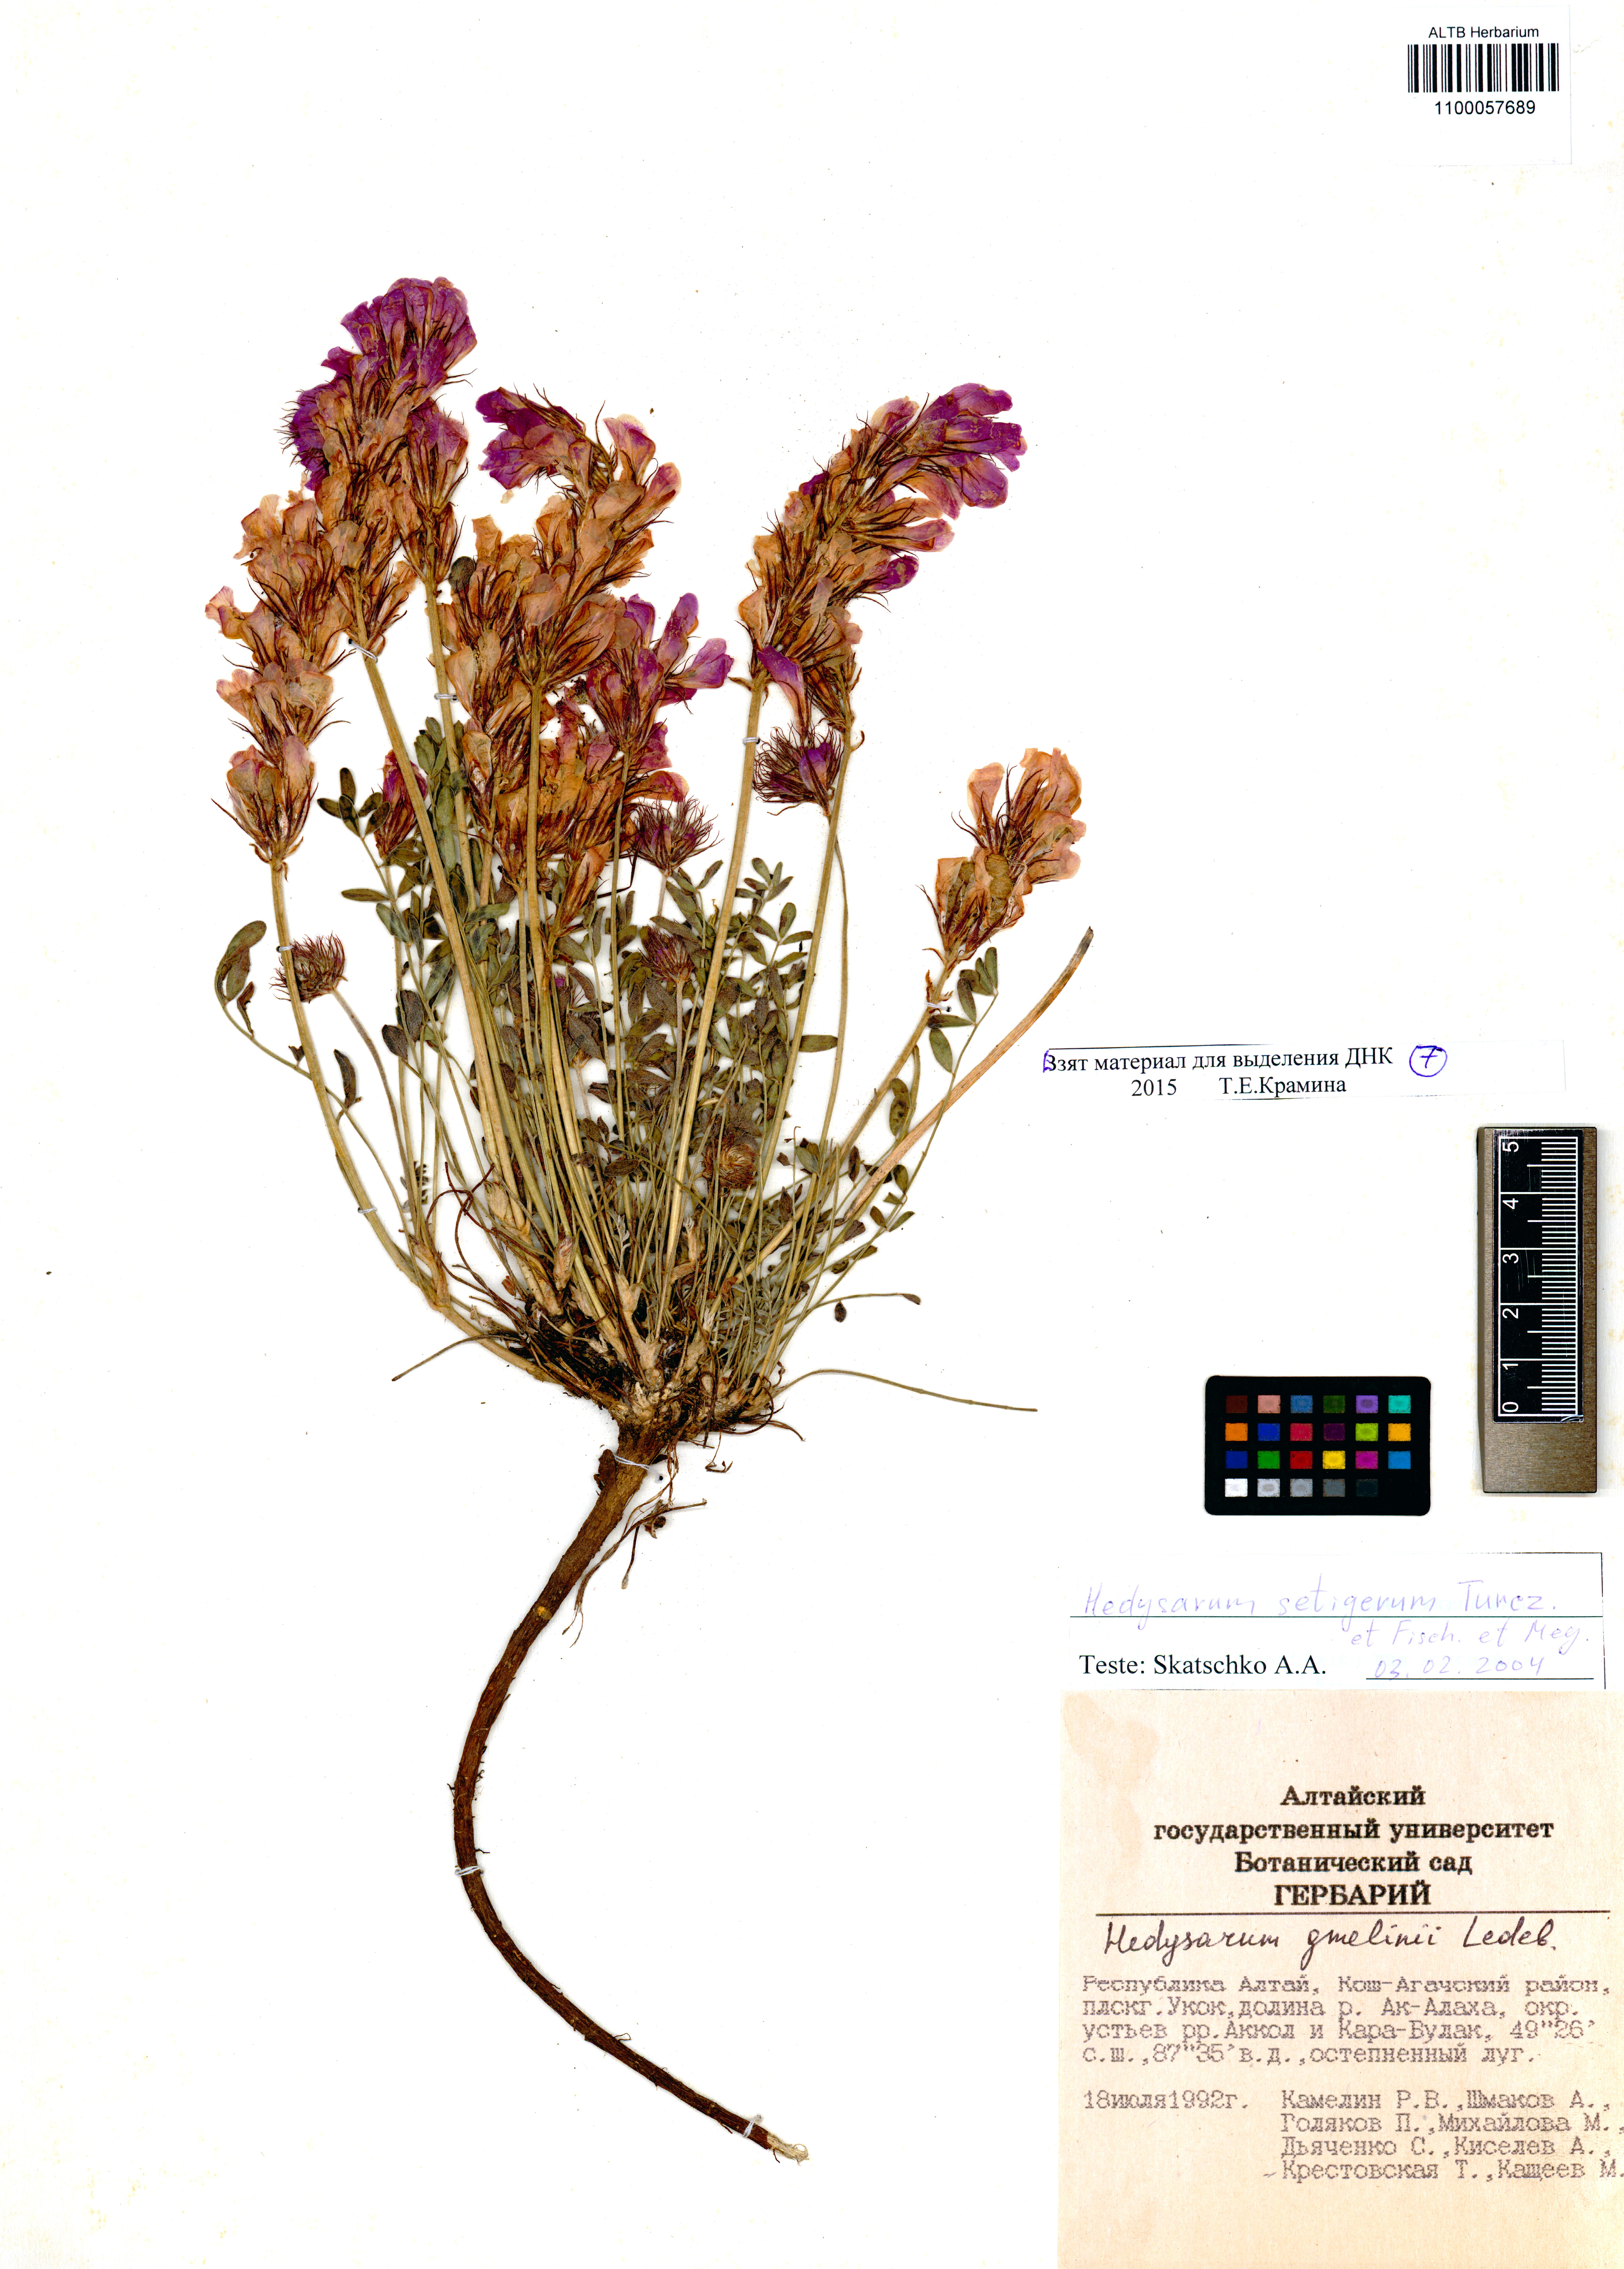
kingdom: Plantae
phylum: Tracheophyta
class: Magnoliopsida
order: Fabales
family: Fabaceae
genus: Hedysarum
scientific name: Hedysarum setigerum
